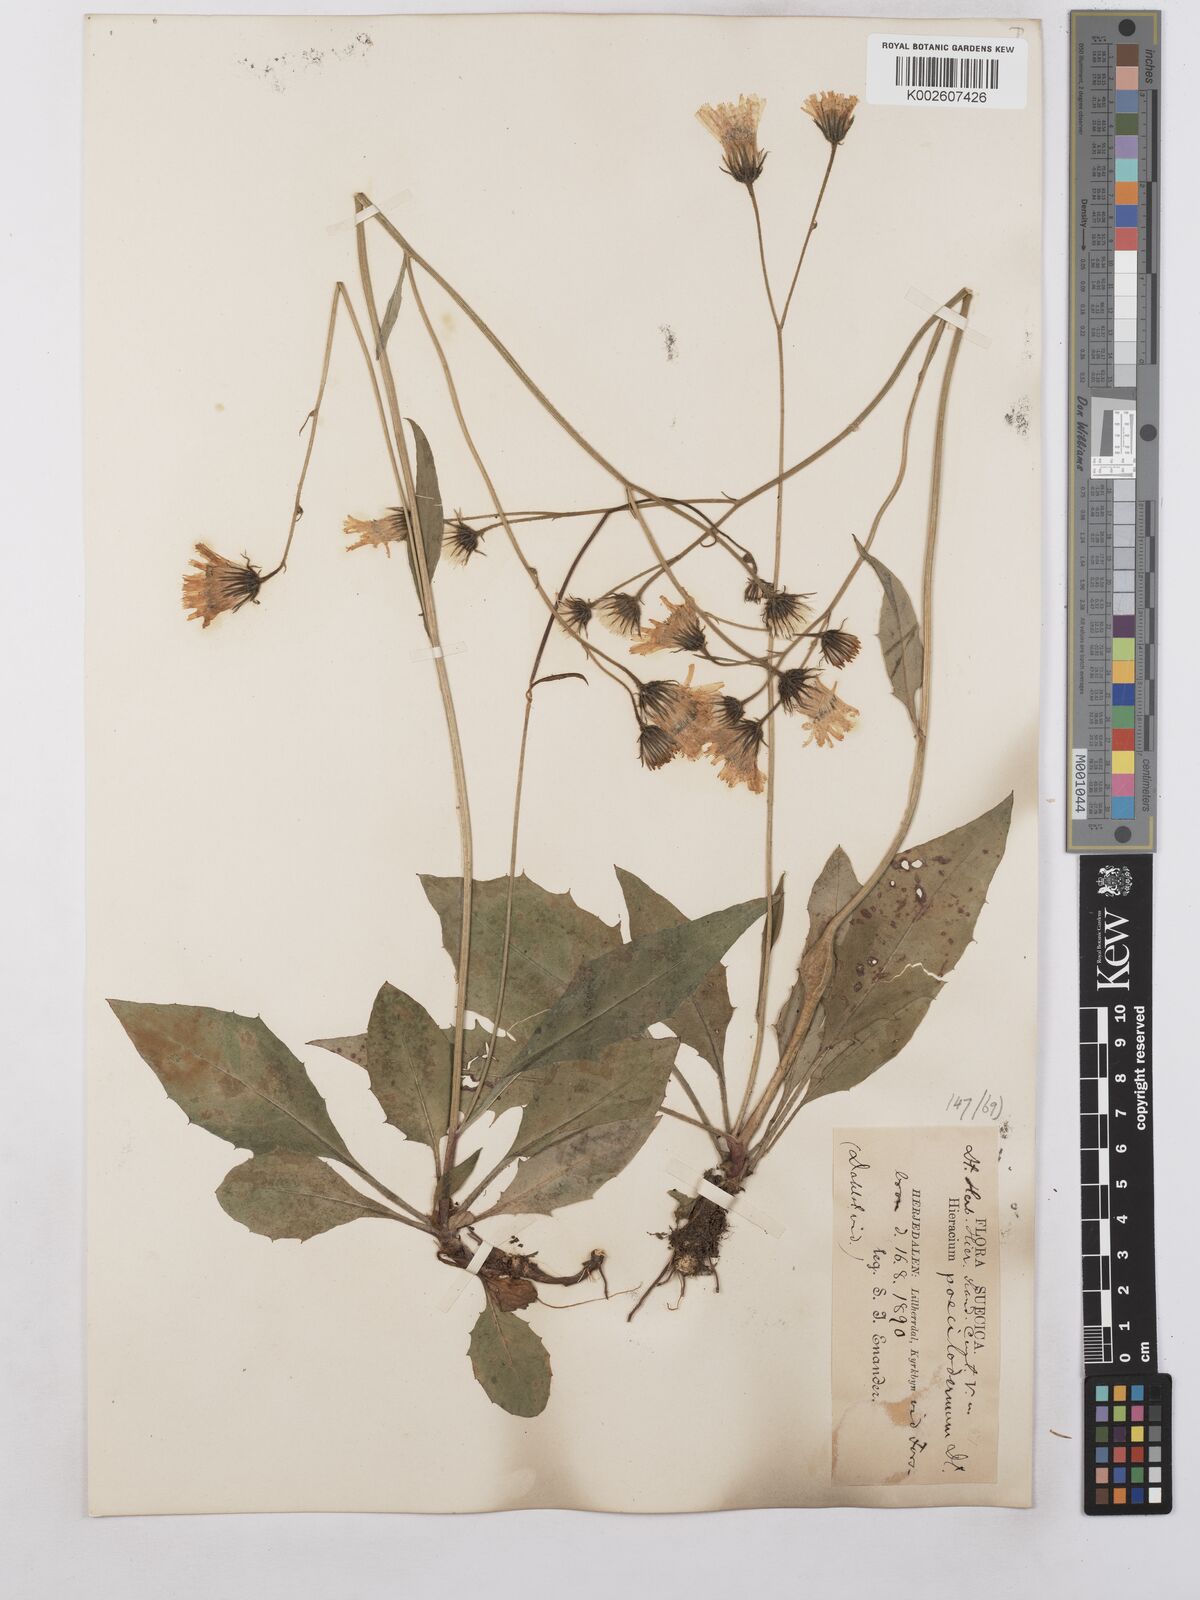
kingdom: Plantae
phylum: Tracheophyta
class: Magnoliopsida
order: Asterales
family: Asteraceae
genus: Hieracium
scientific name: Hieracium poecilodermum
